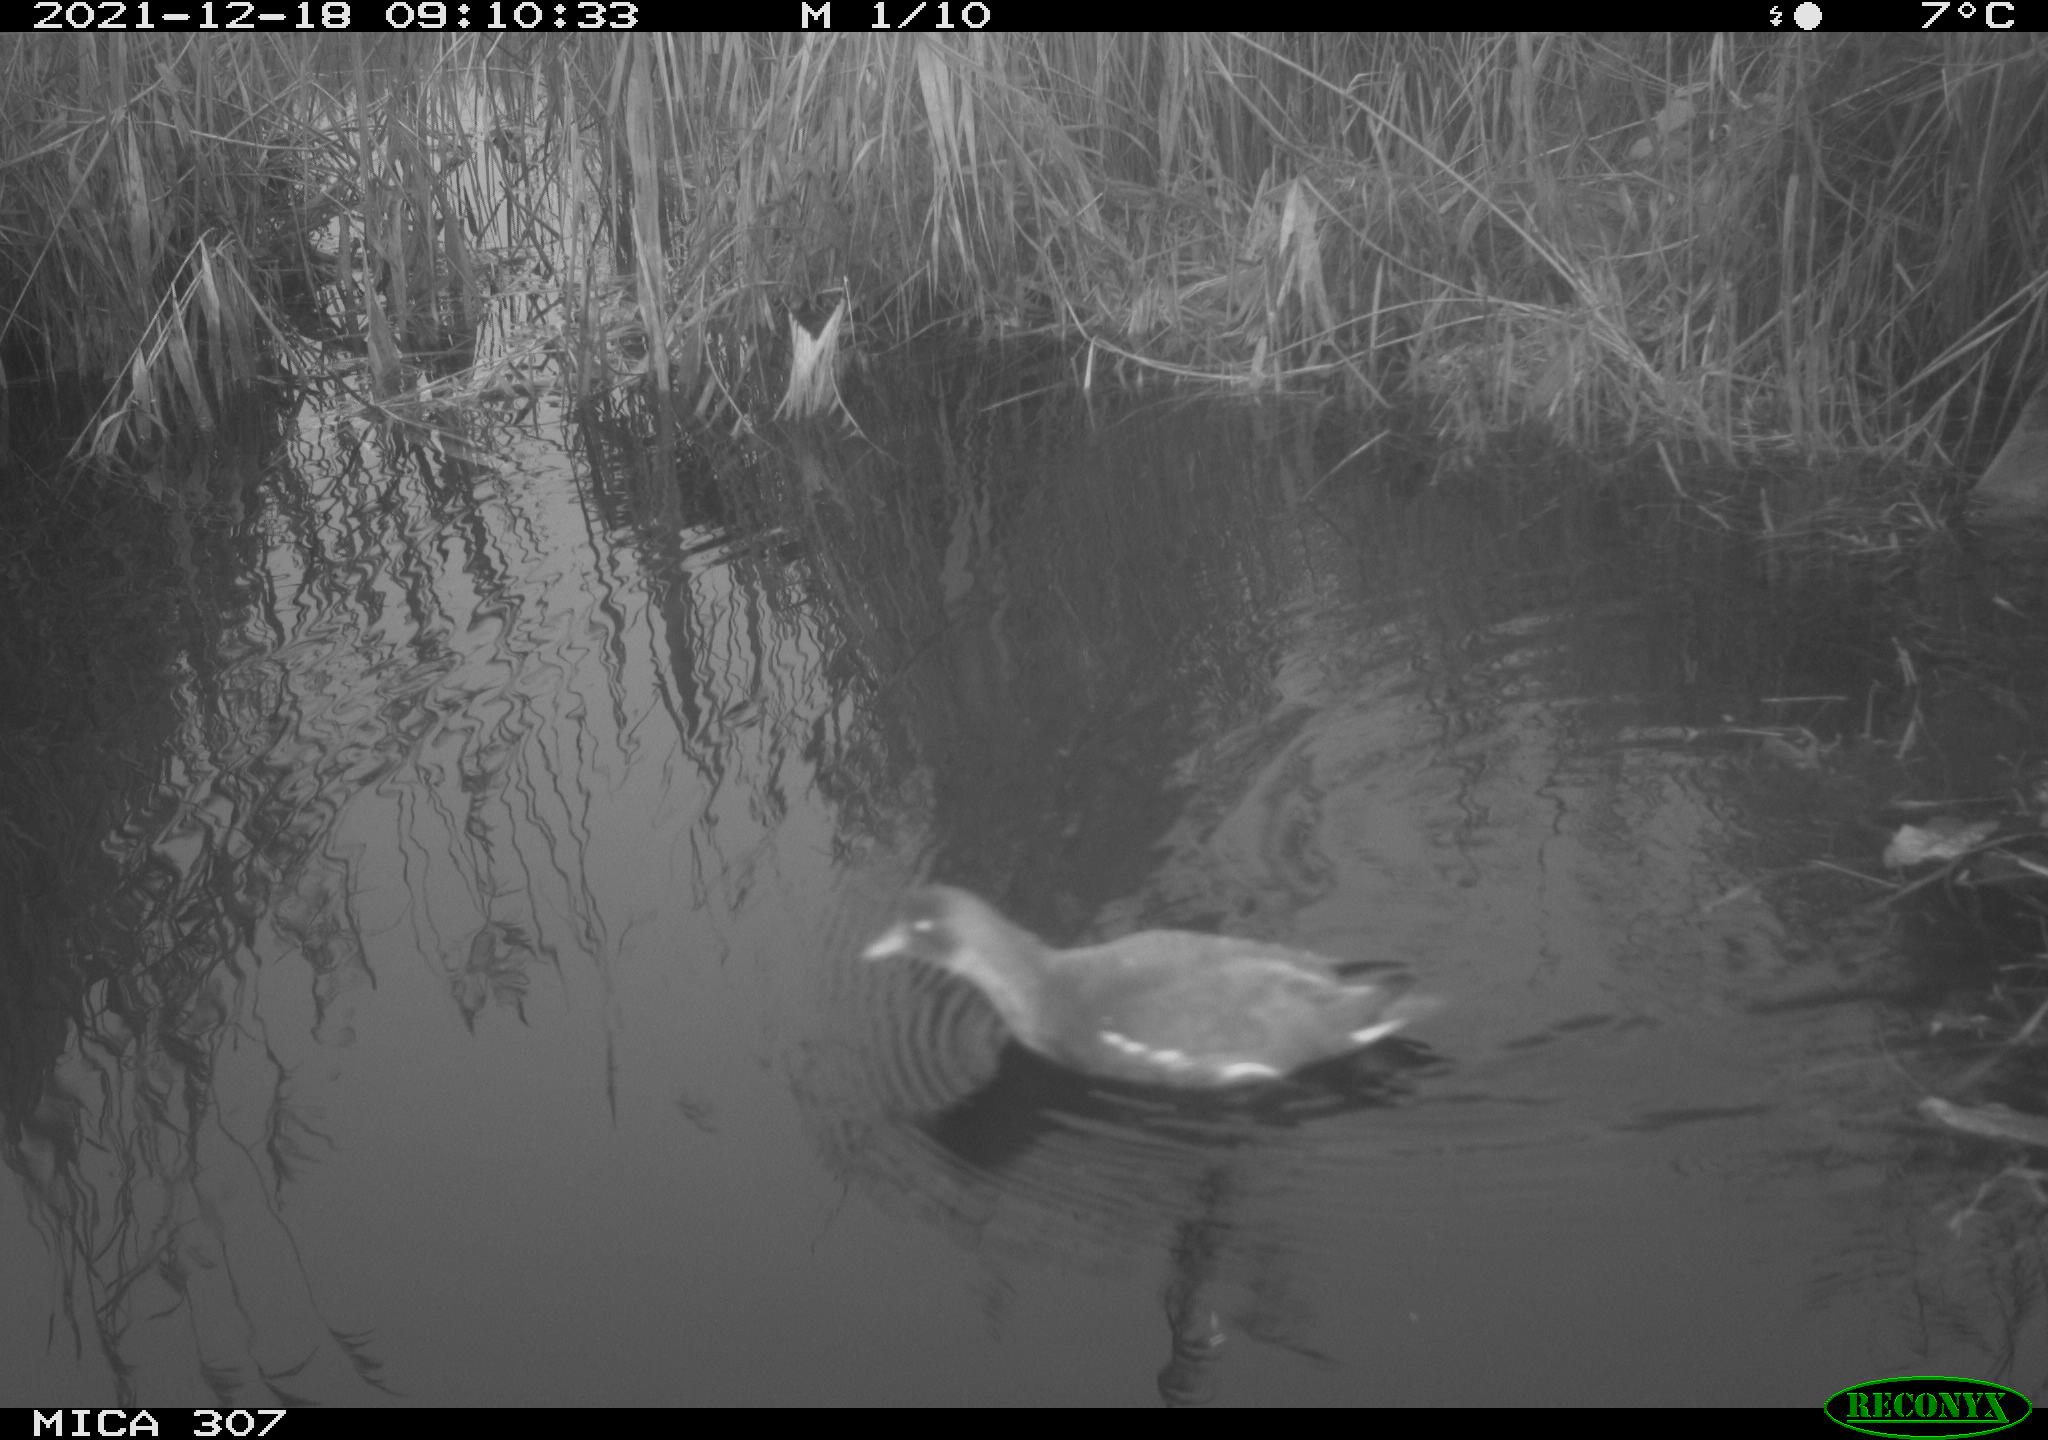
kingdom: Animalia
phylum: Chordata
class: Aves
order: Gruiformes
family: Rallidae
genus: Gallinula
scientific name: Gallinula chloropus
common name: Common moorhen
